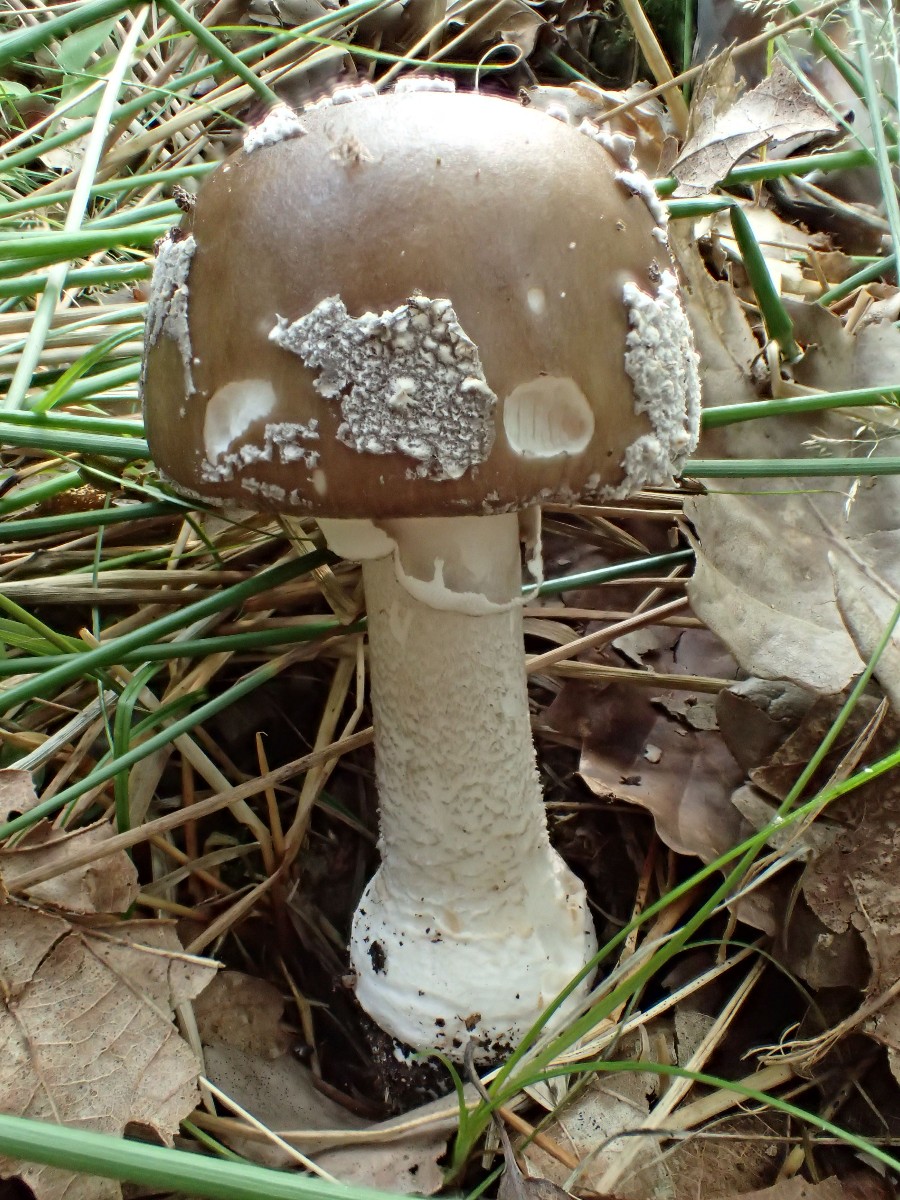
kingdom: Fungi
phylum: Basidiomycota
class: Agaricomycetes
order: Agaricales
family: Amanitaceae
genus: Amanita
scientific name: Amanita
